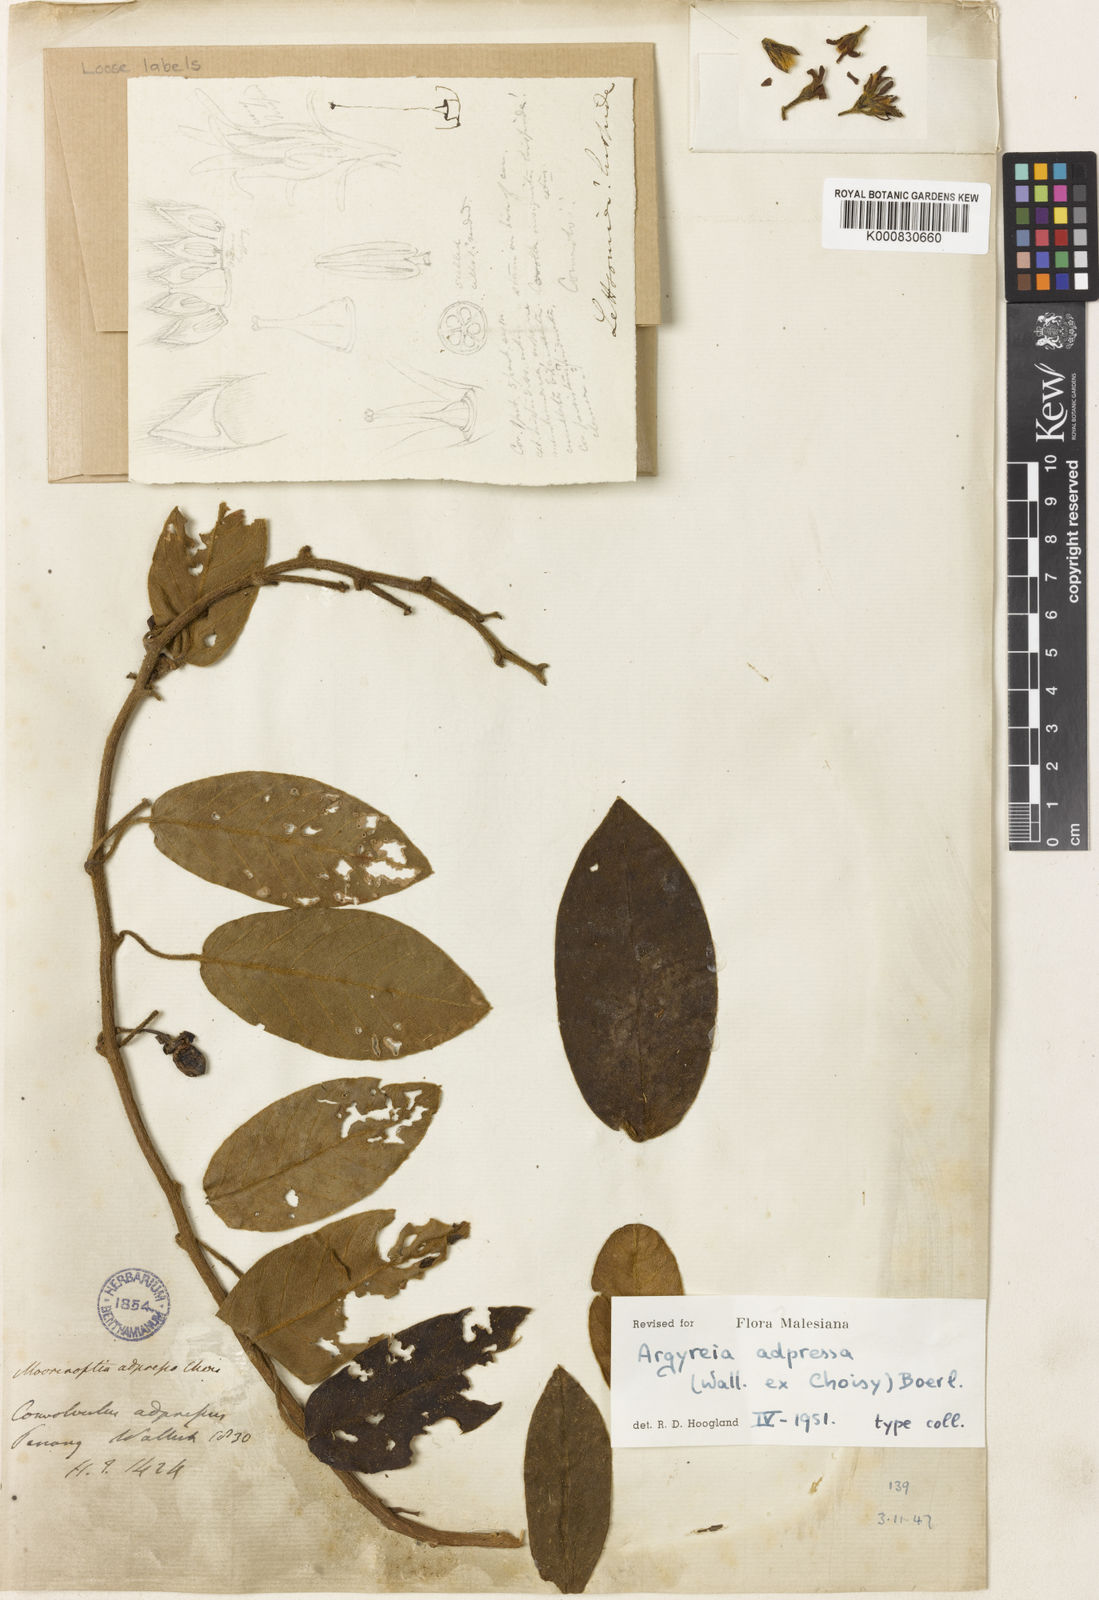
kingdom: Plantae
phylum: Tracheophyta
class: Magnoliopsida
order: Solanales
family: Convolvulaceae
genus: Argyreia
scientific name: Argyreia adpressa
